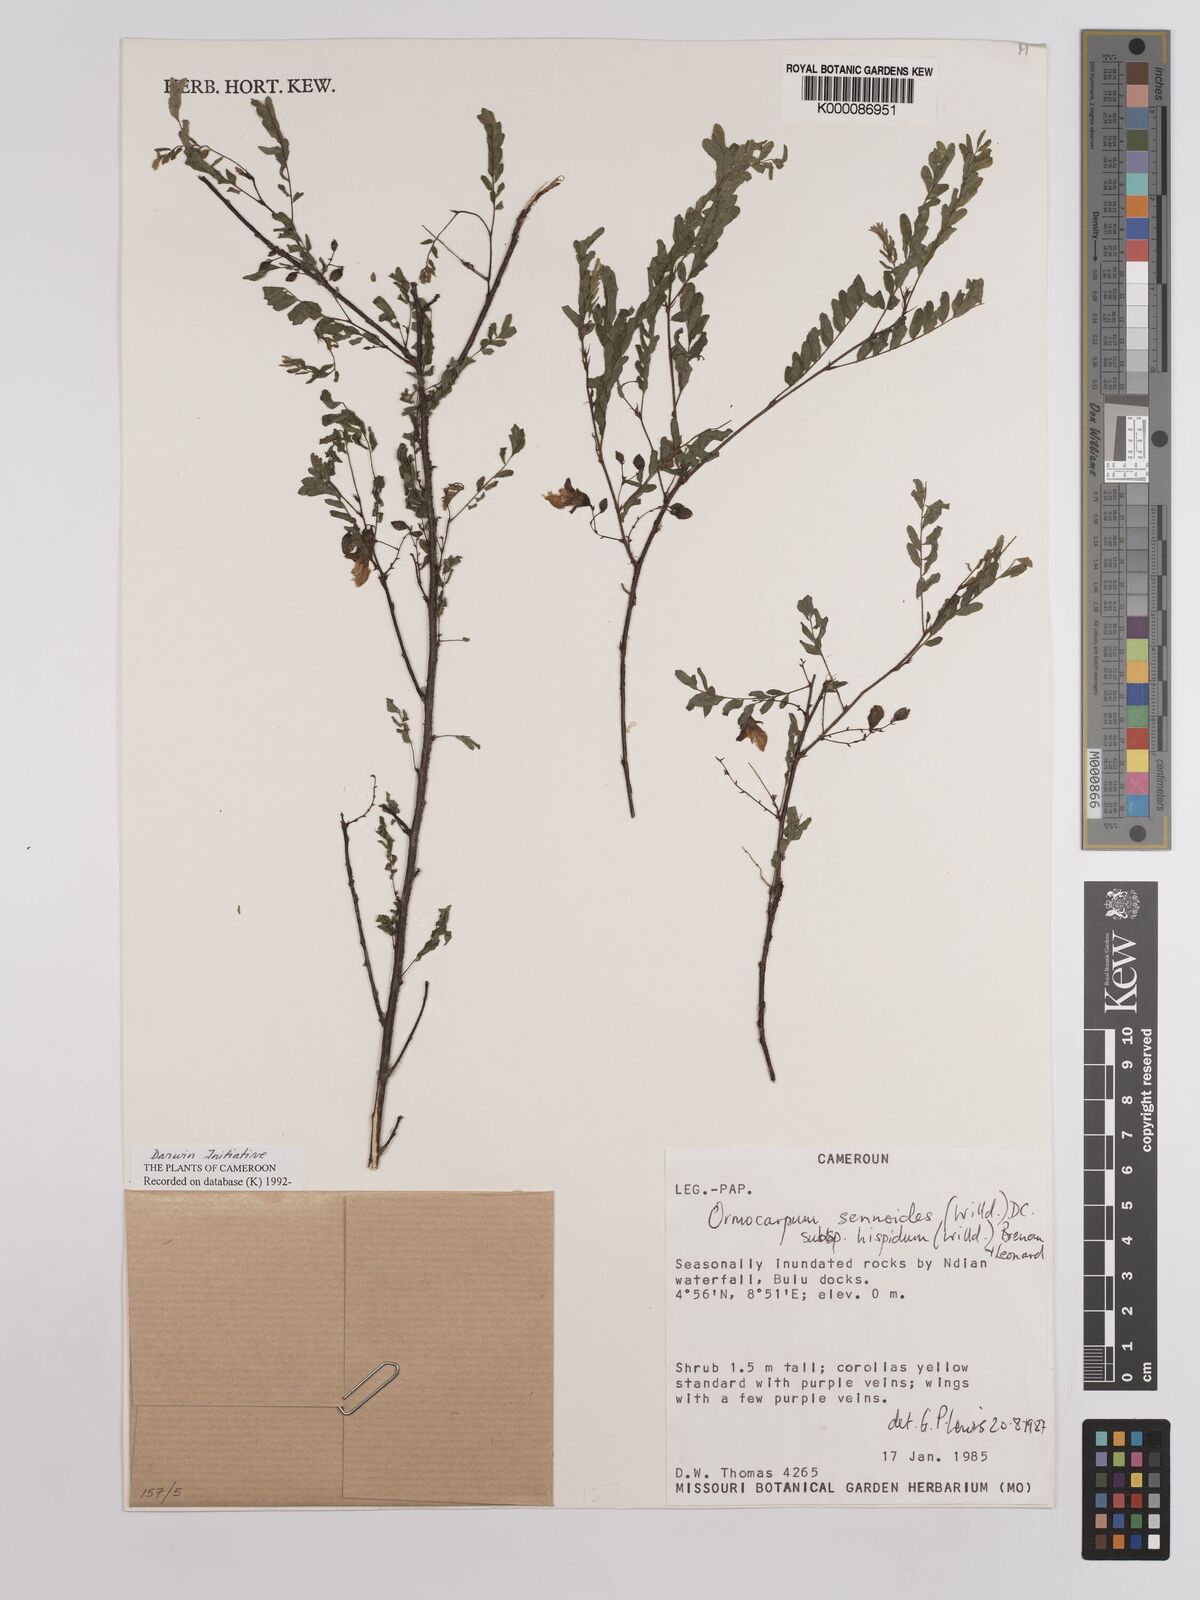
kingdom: Plantae
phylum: Tracheophyta
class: Magnoliopsida
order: Fabales
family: Fabaceae
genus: Ormocarpum
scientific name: Ormocarpum sennoides
